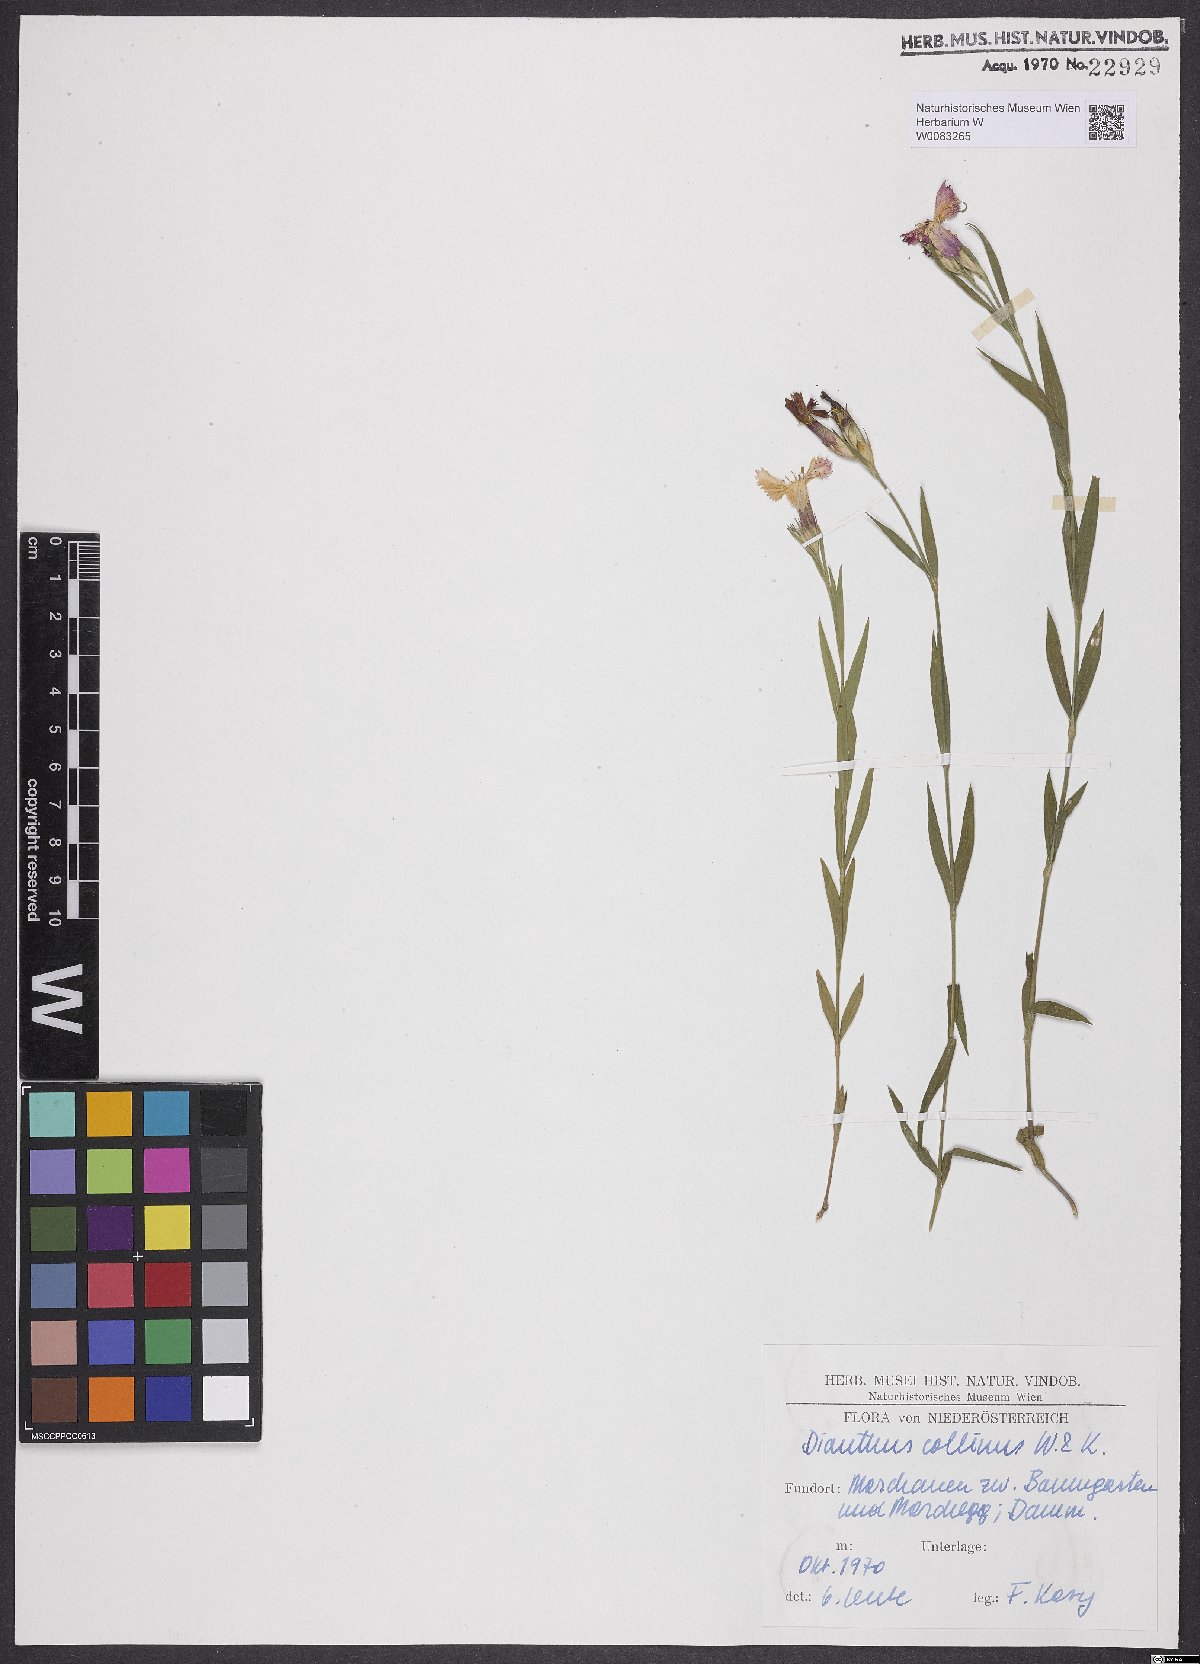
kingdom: Plantae
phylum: Tracheophyta
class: Magnoliopsida
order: Caryophyllales
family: Caryophyllaceae
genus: Dianthus
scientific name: Dianthus collinus
